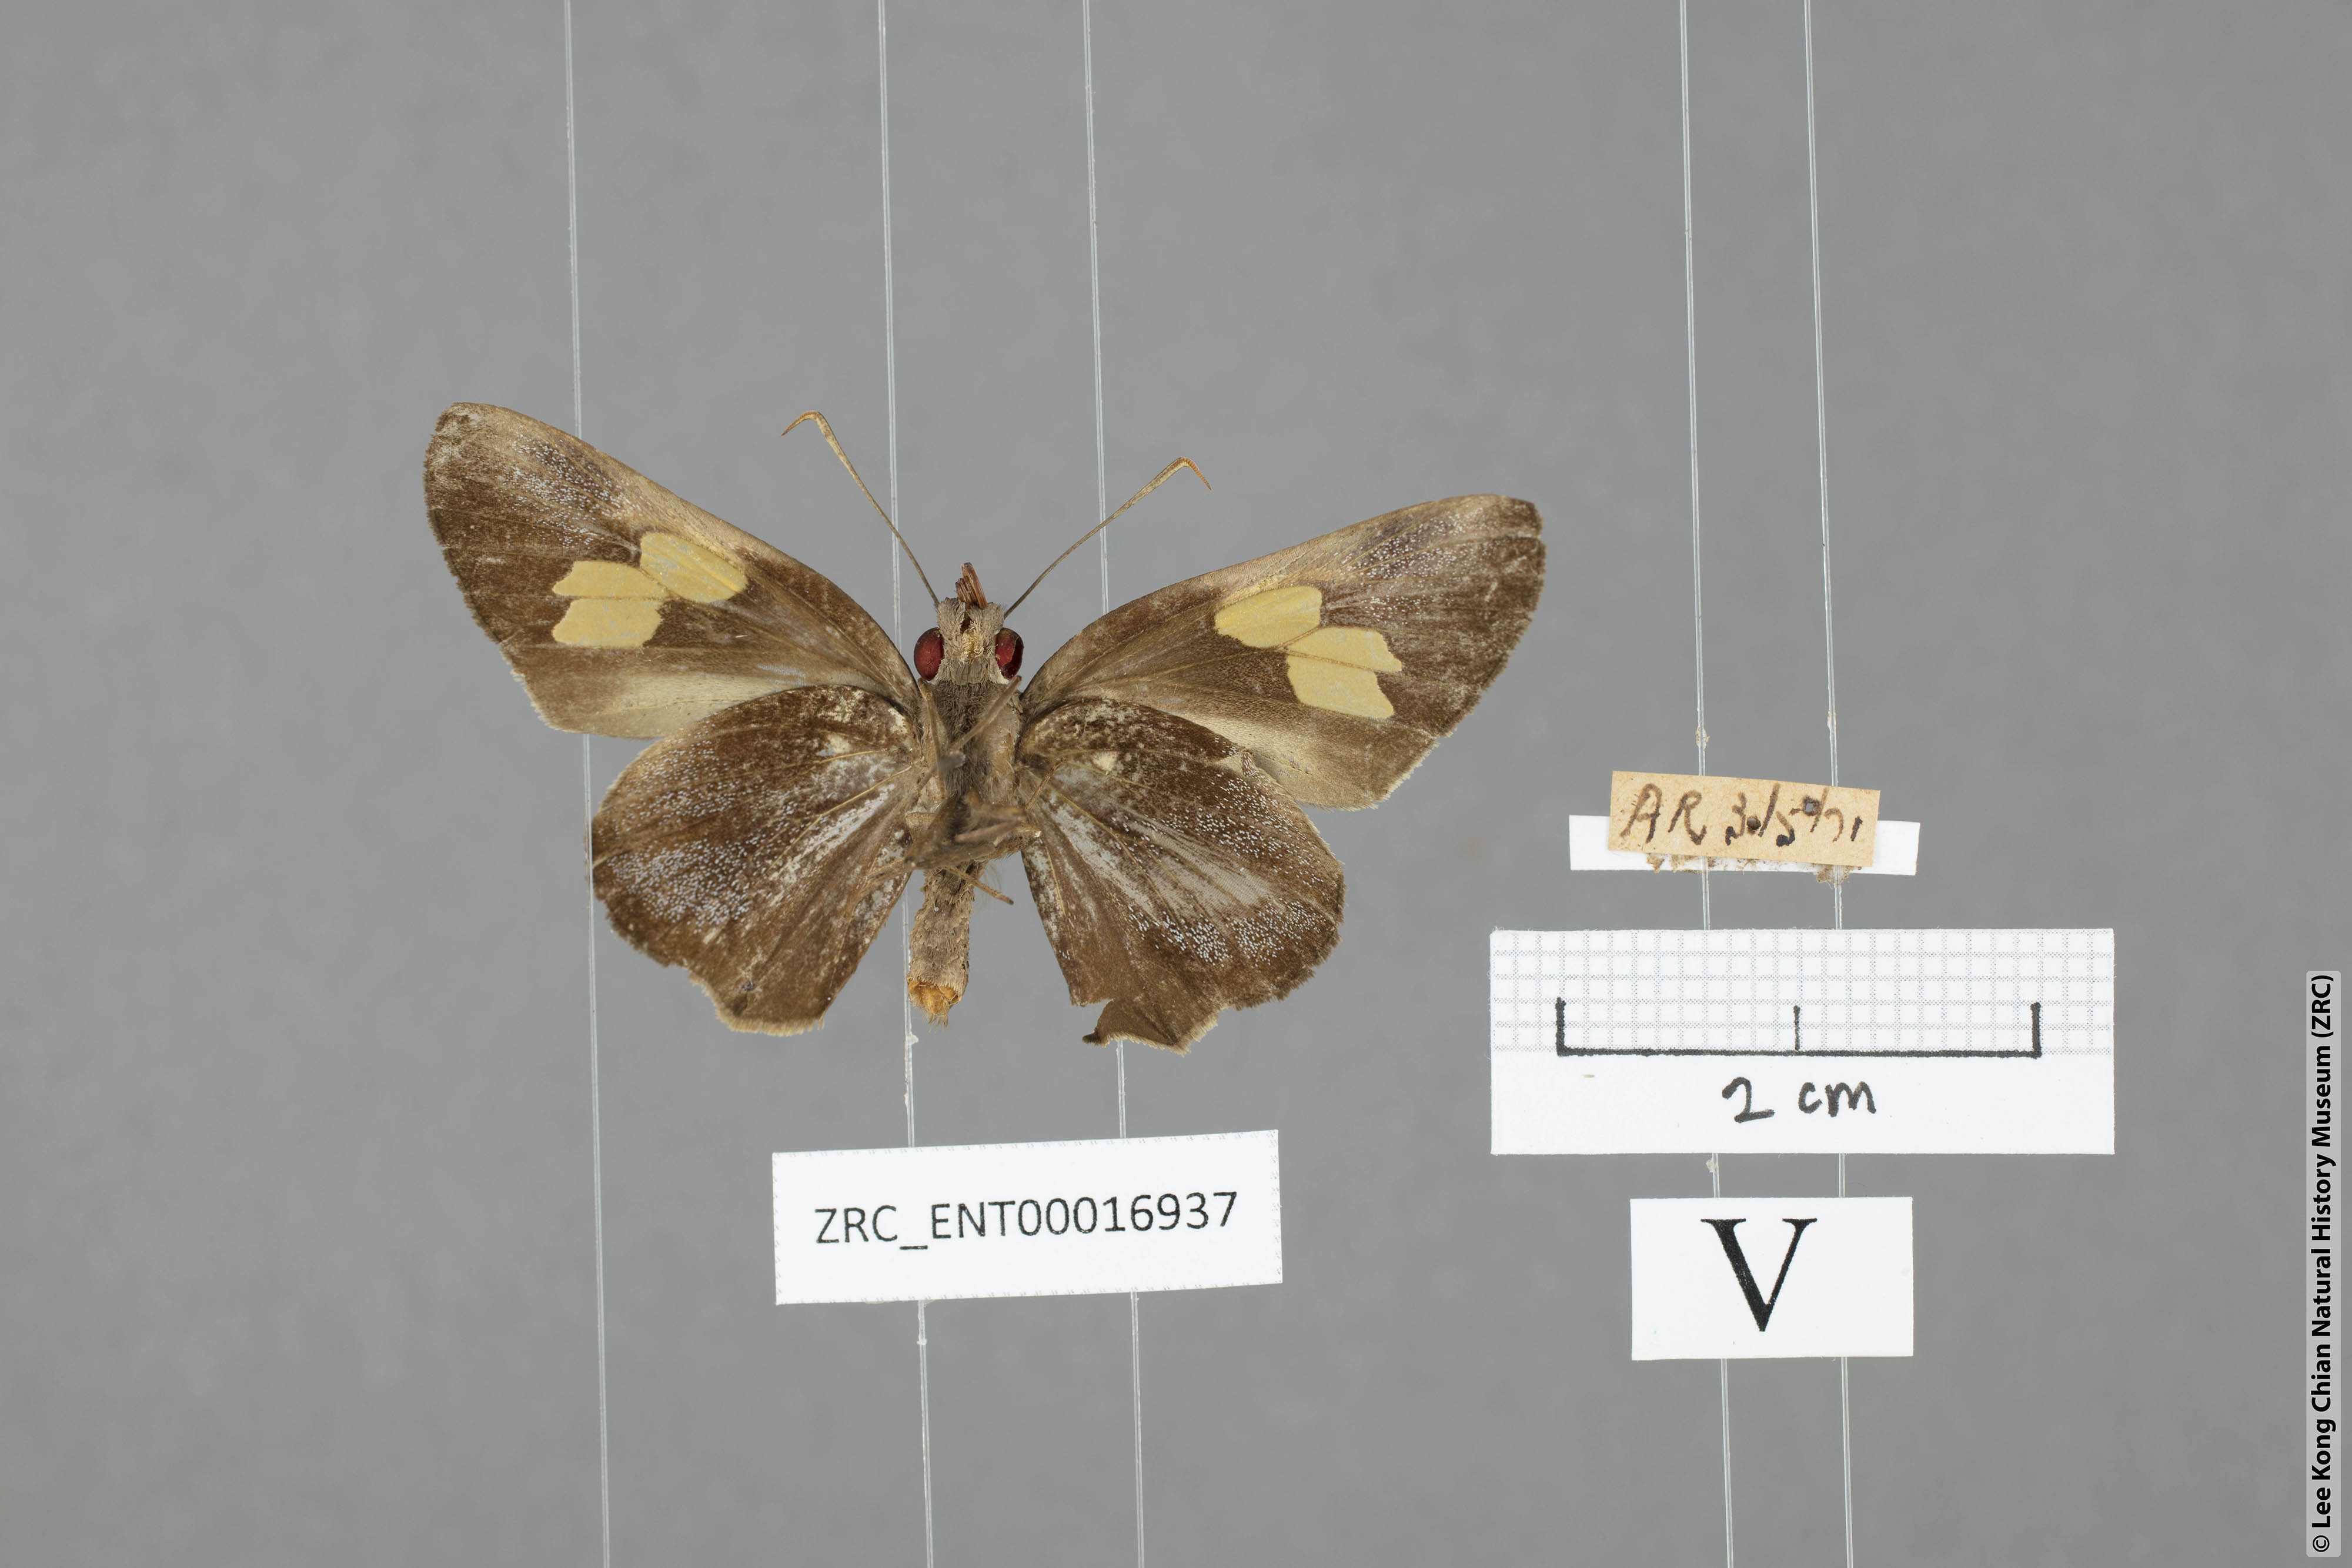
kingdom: Animalia
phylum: Arthropoda
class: Insecta
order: Lepidoptera
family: Hesperiidae
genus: Gangara
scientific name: Gangara sanguinocculus
